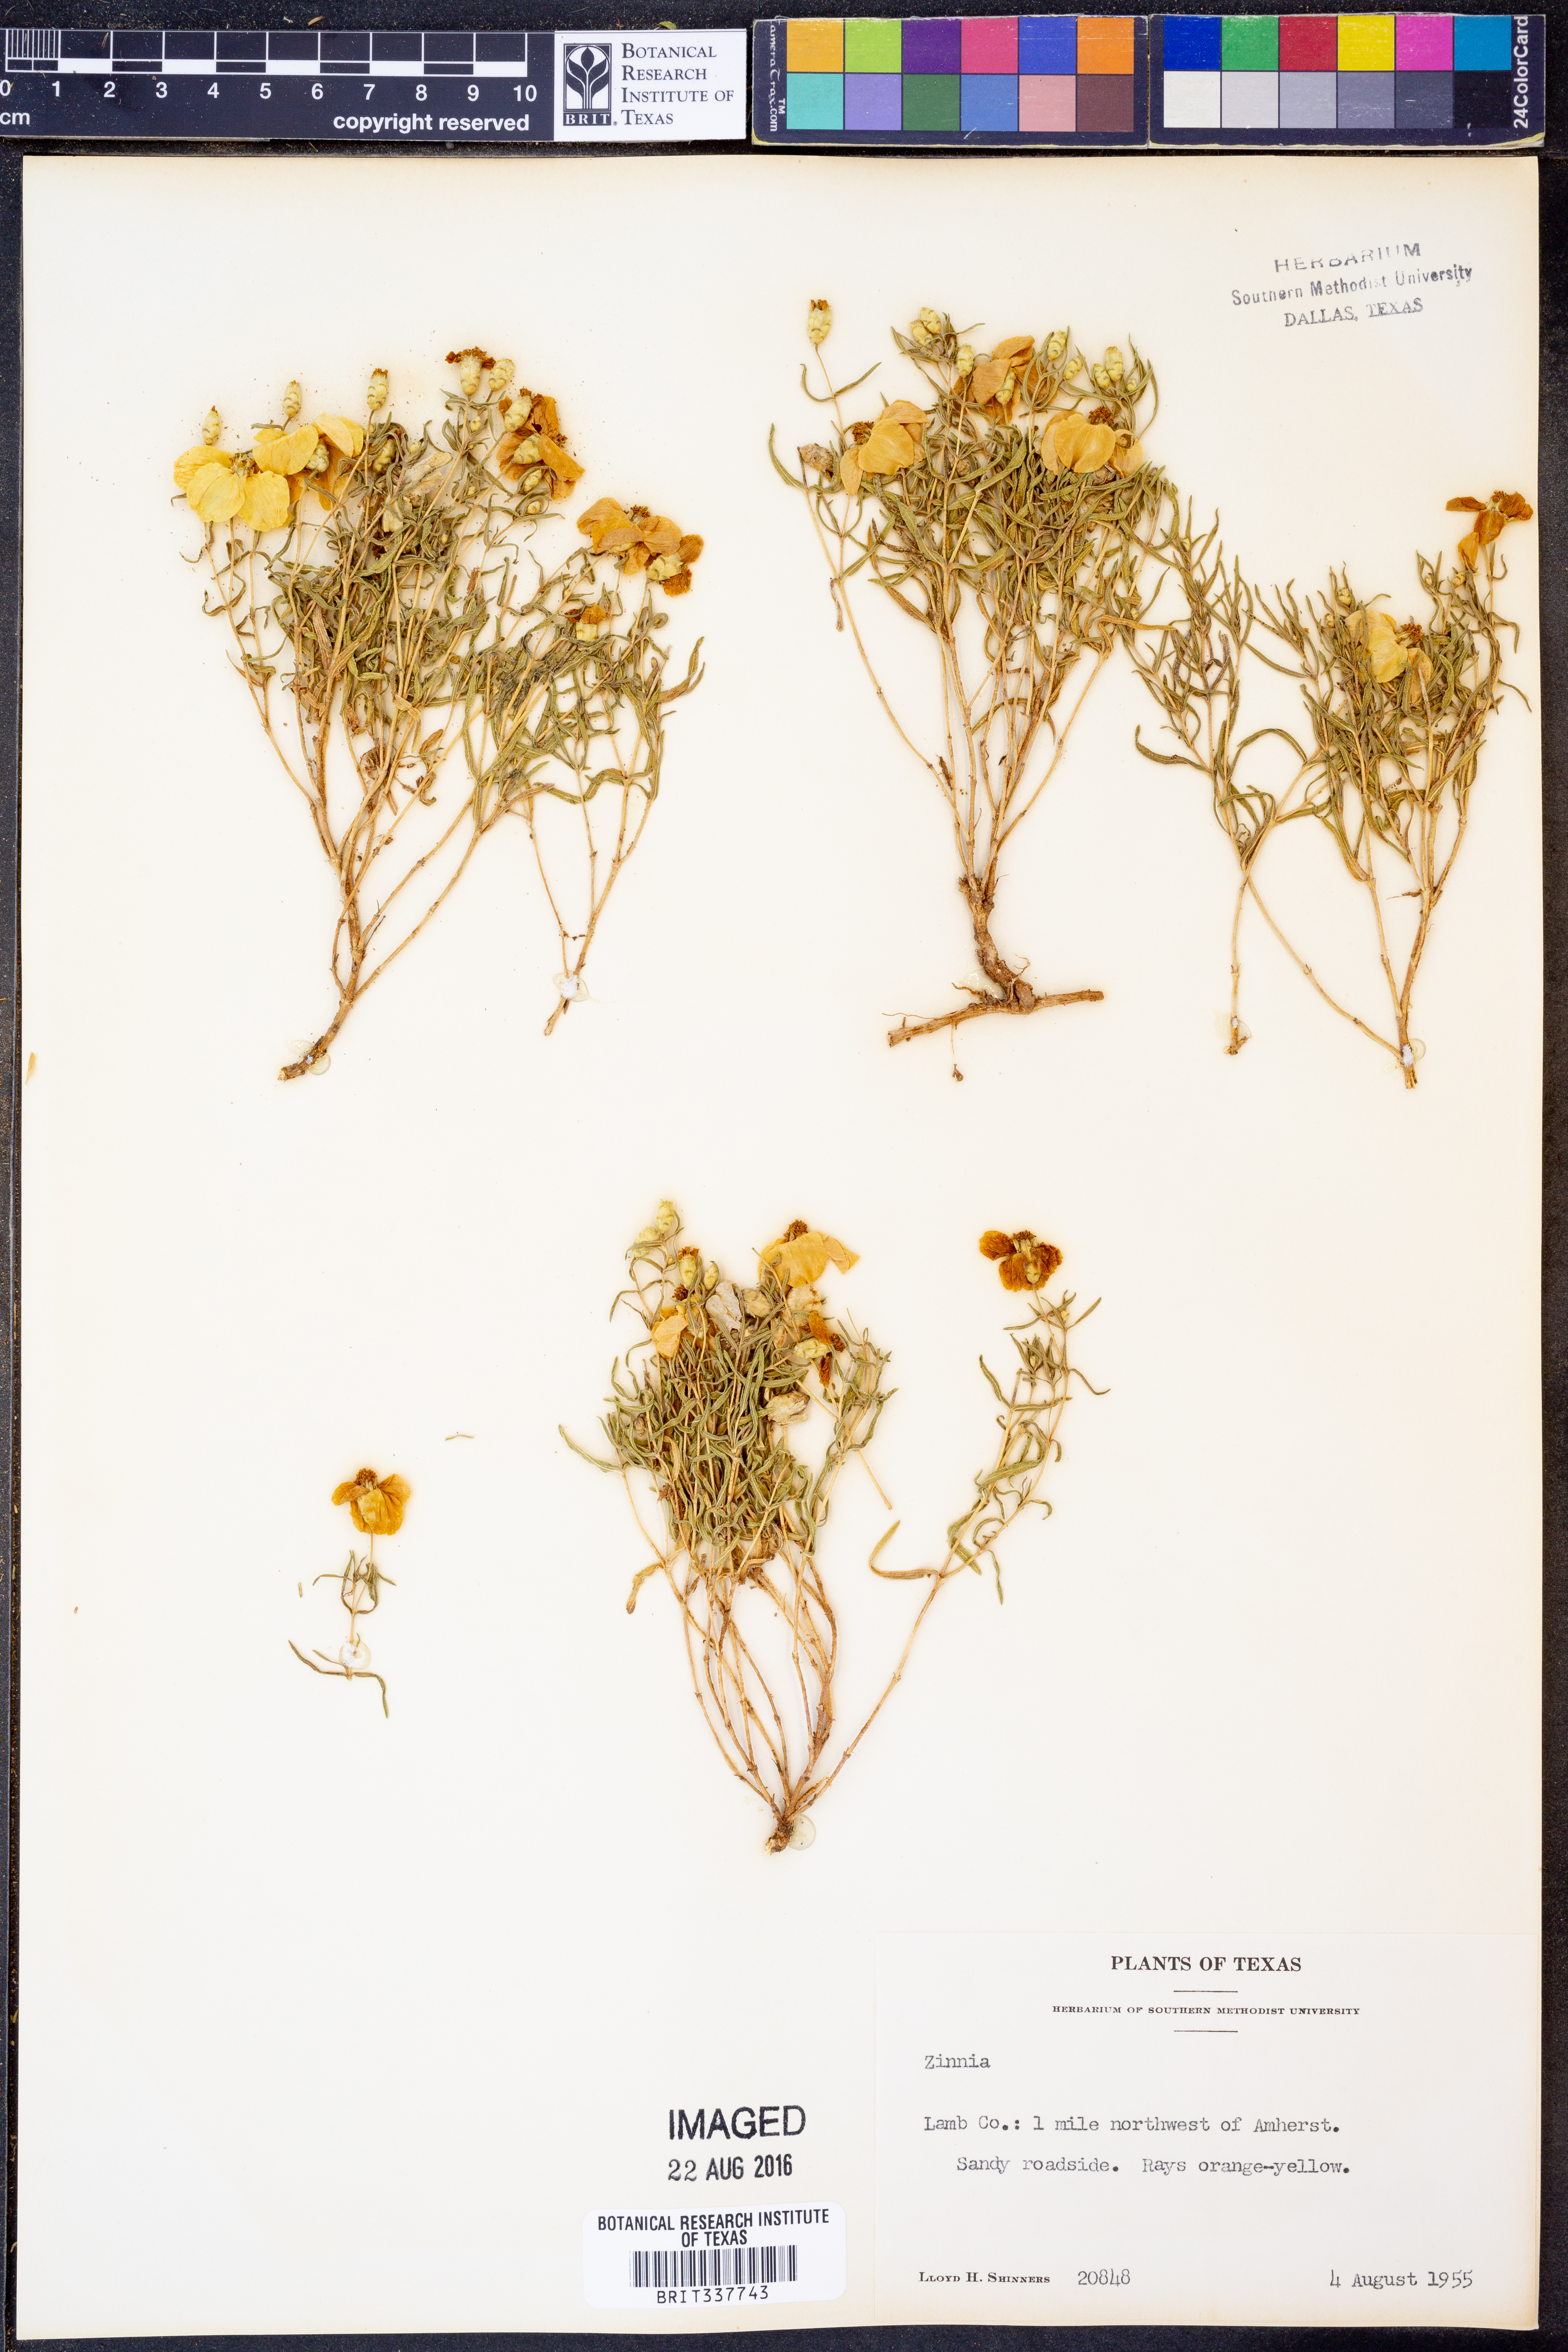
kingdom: Plantae
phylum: Tracheophyta
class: Magnoliopsida
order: Asterales
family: Asteraceae
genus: Zinnia
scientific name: Zinnia
